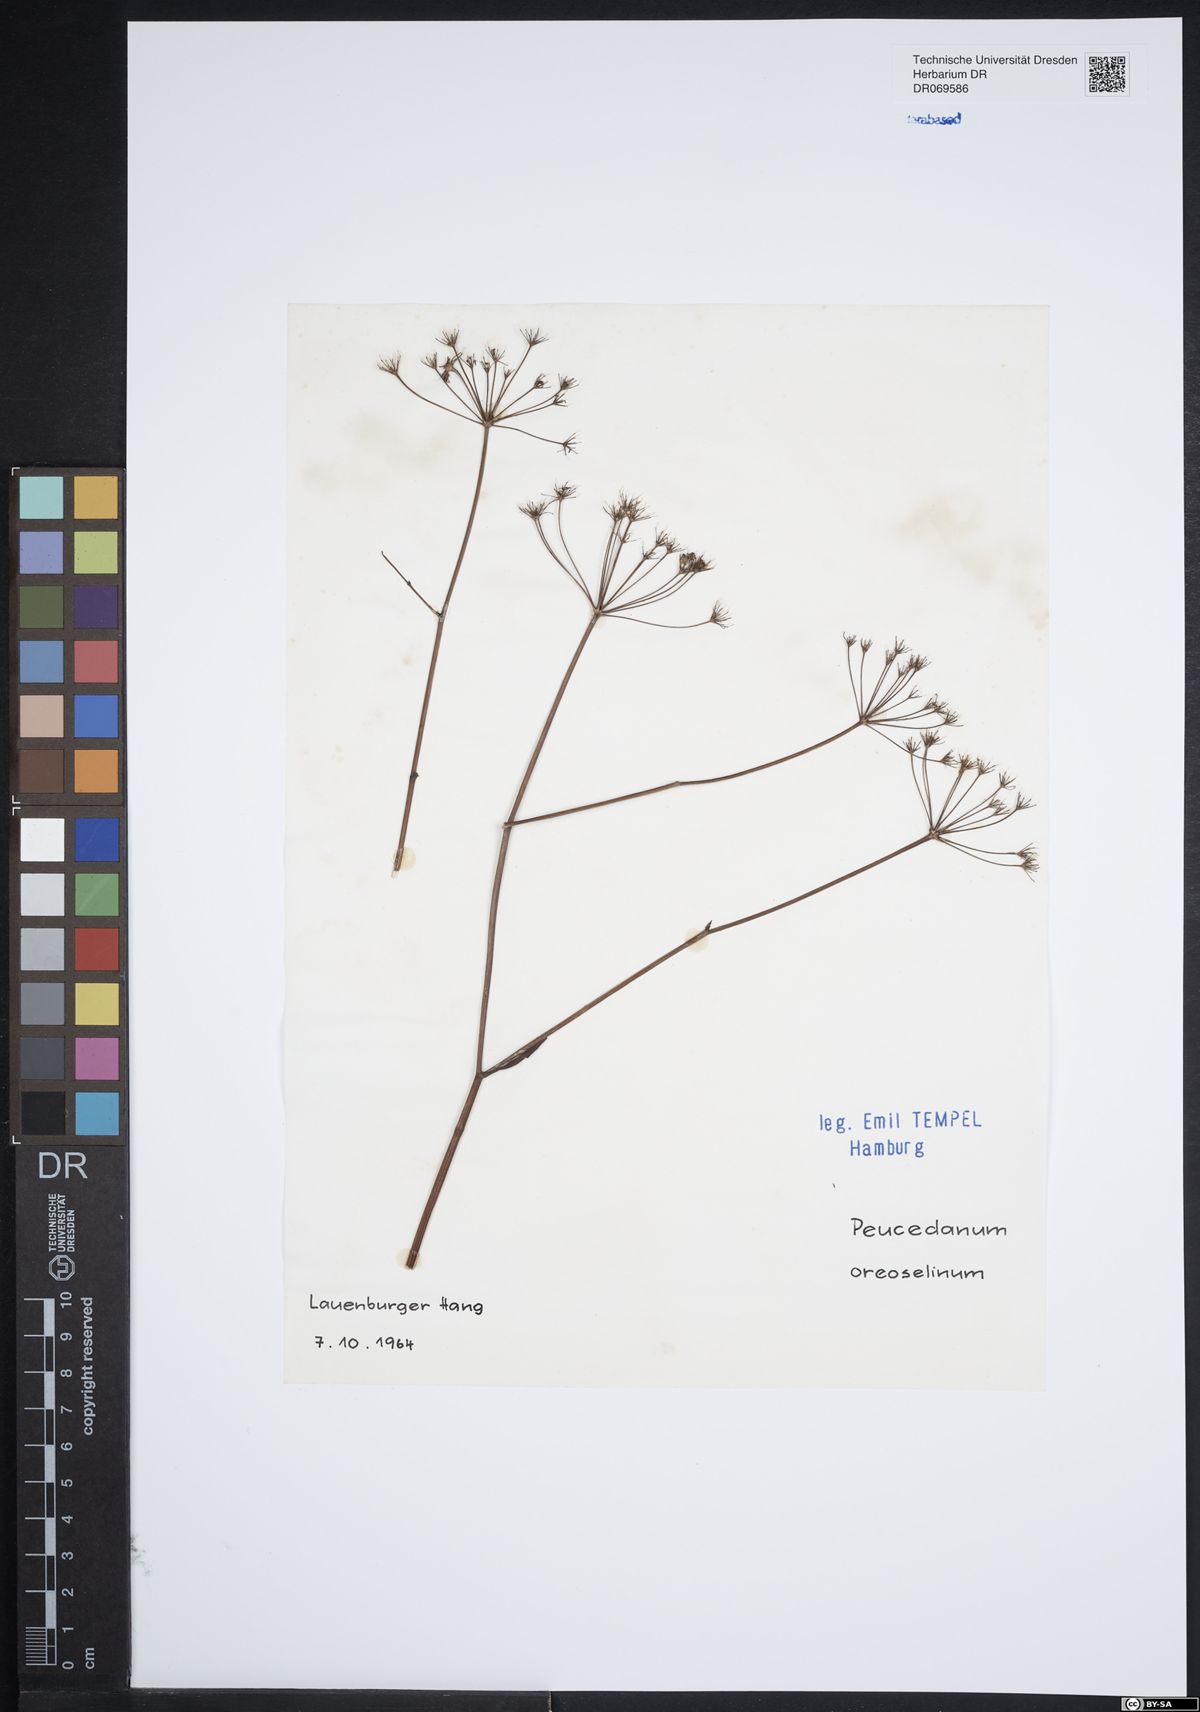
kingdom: Plantae
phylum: Tracheophyta
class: Magnoliopsida
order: Apiales
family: Apiaceae
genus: Oreoselinum
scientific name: Oreoselinum nigrum
